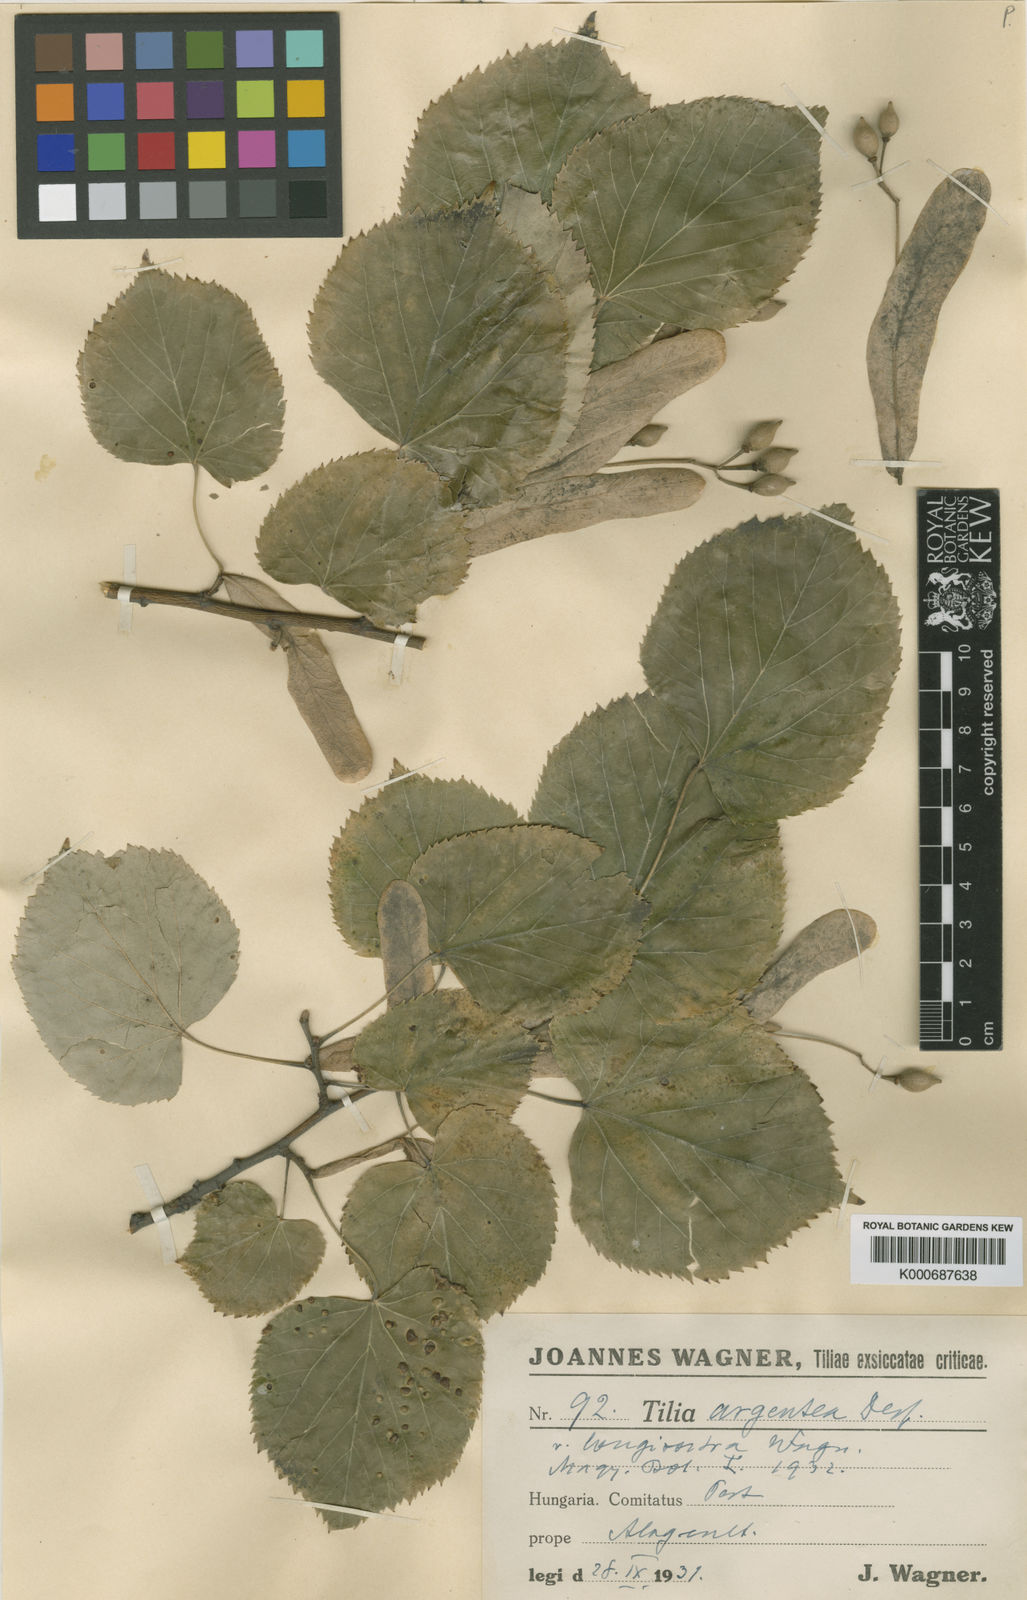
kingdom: Plantae
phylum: Tracheophyta
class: Magnoliopsida
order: Malvales
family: Malvaceae
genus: Tilia
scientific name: Tilia tomentosa
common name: Silver lime
